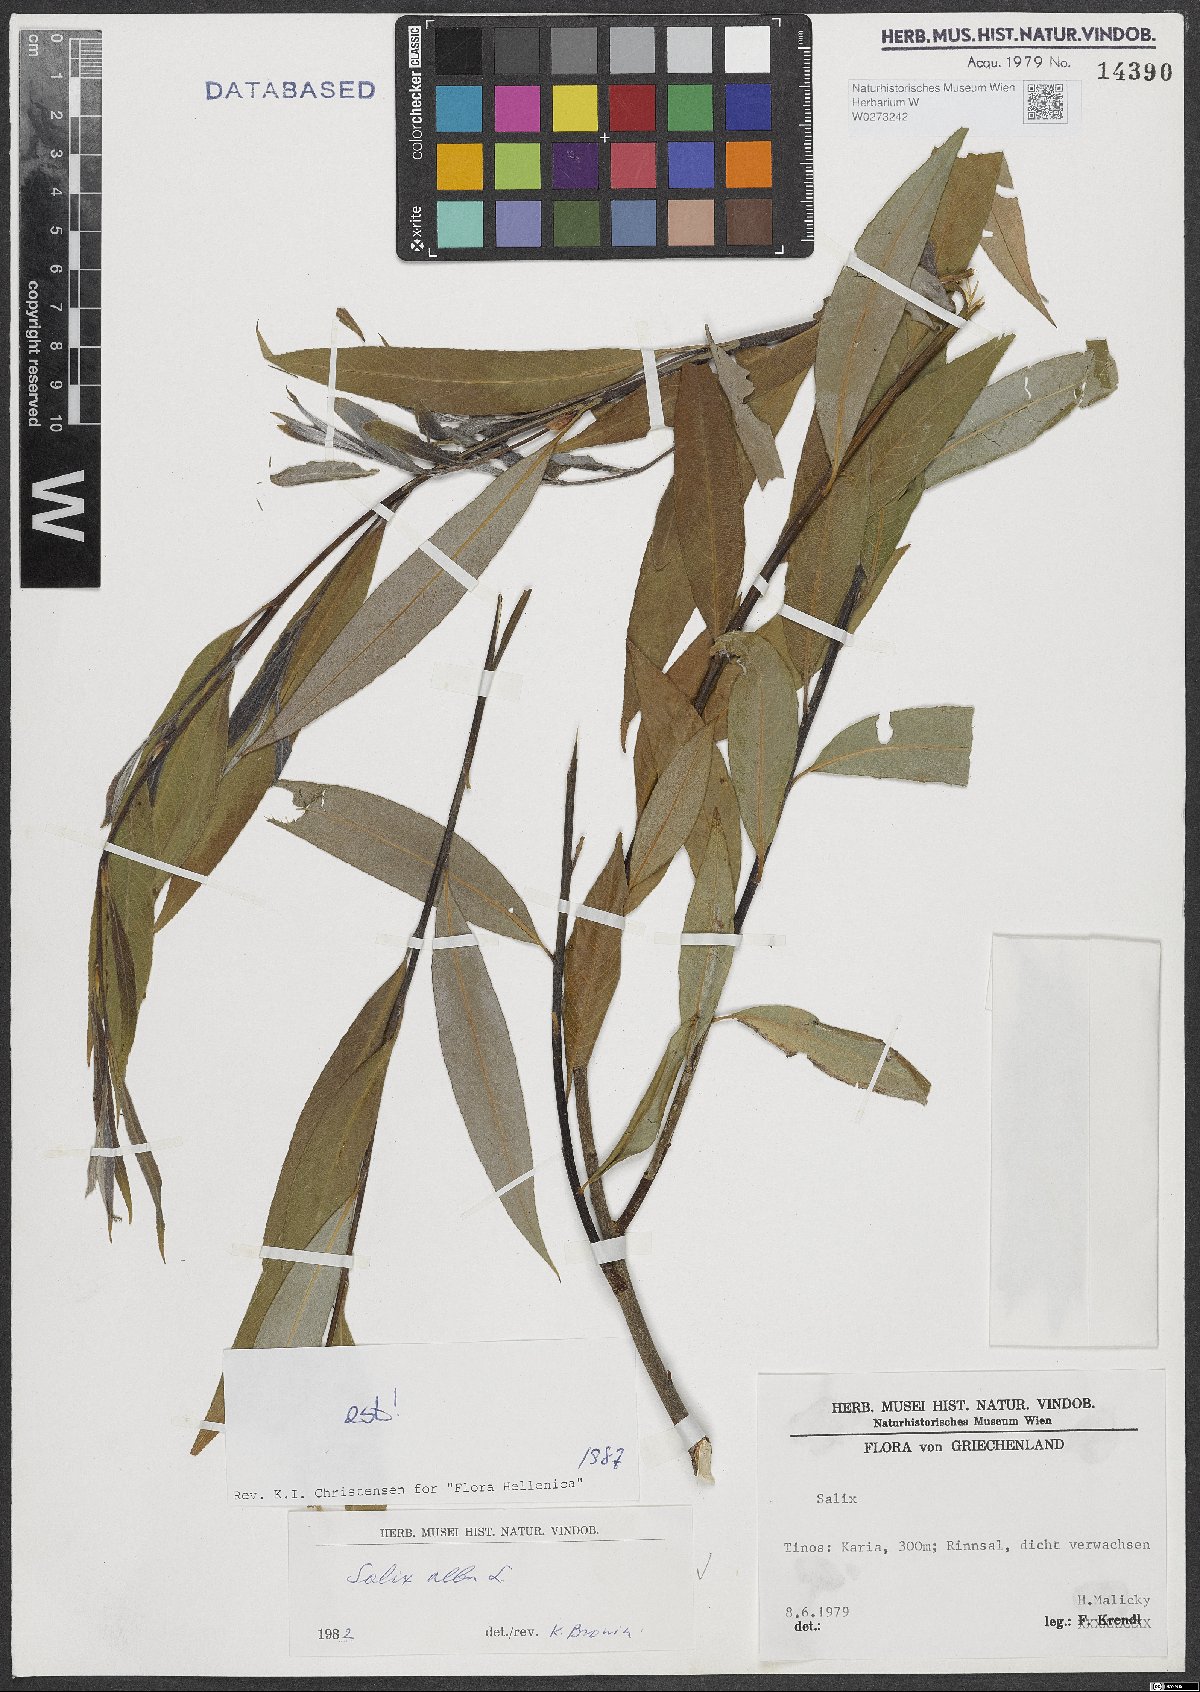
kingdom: Plantae
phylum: Tracheophyta
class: Magnoliopsida
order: Malpighiales
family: Salicaceae
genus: Salix
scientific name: Salix alba
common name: White willow
